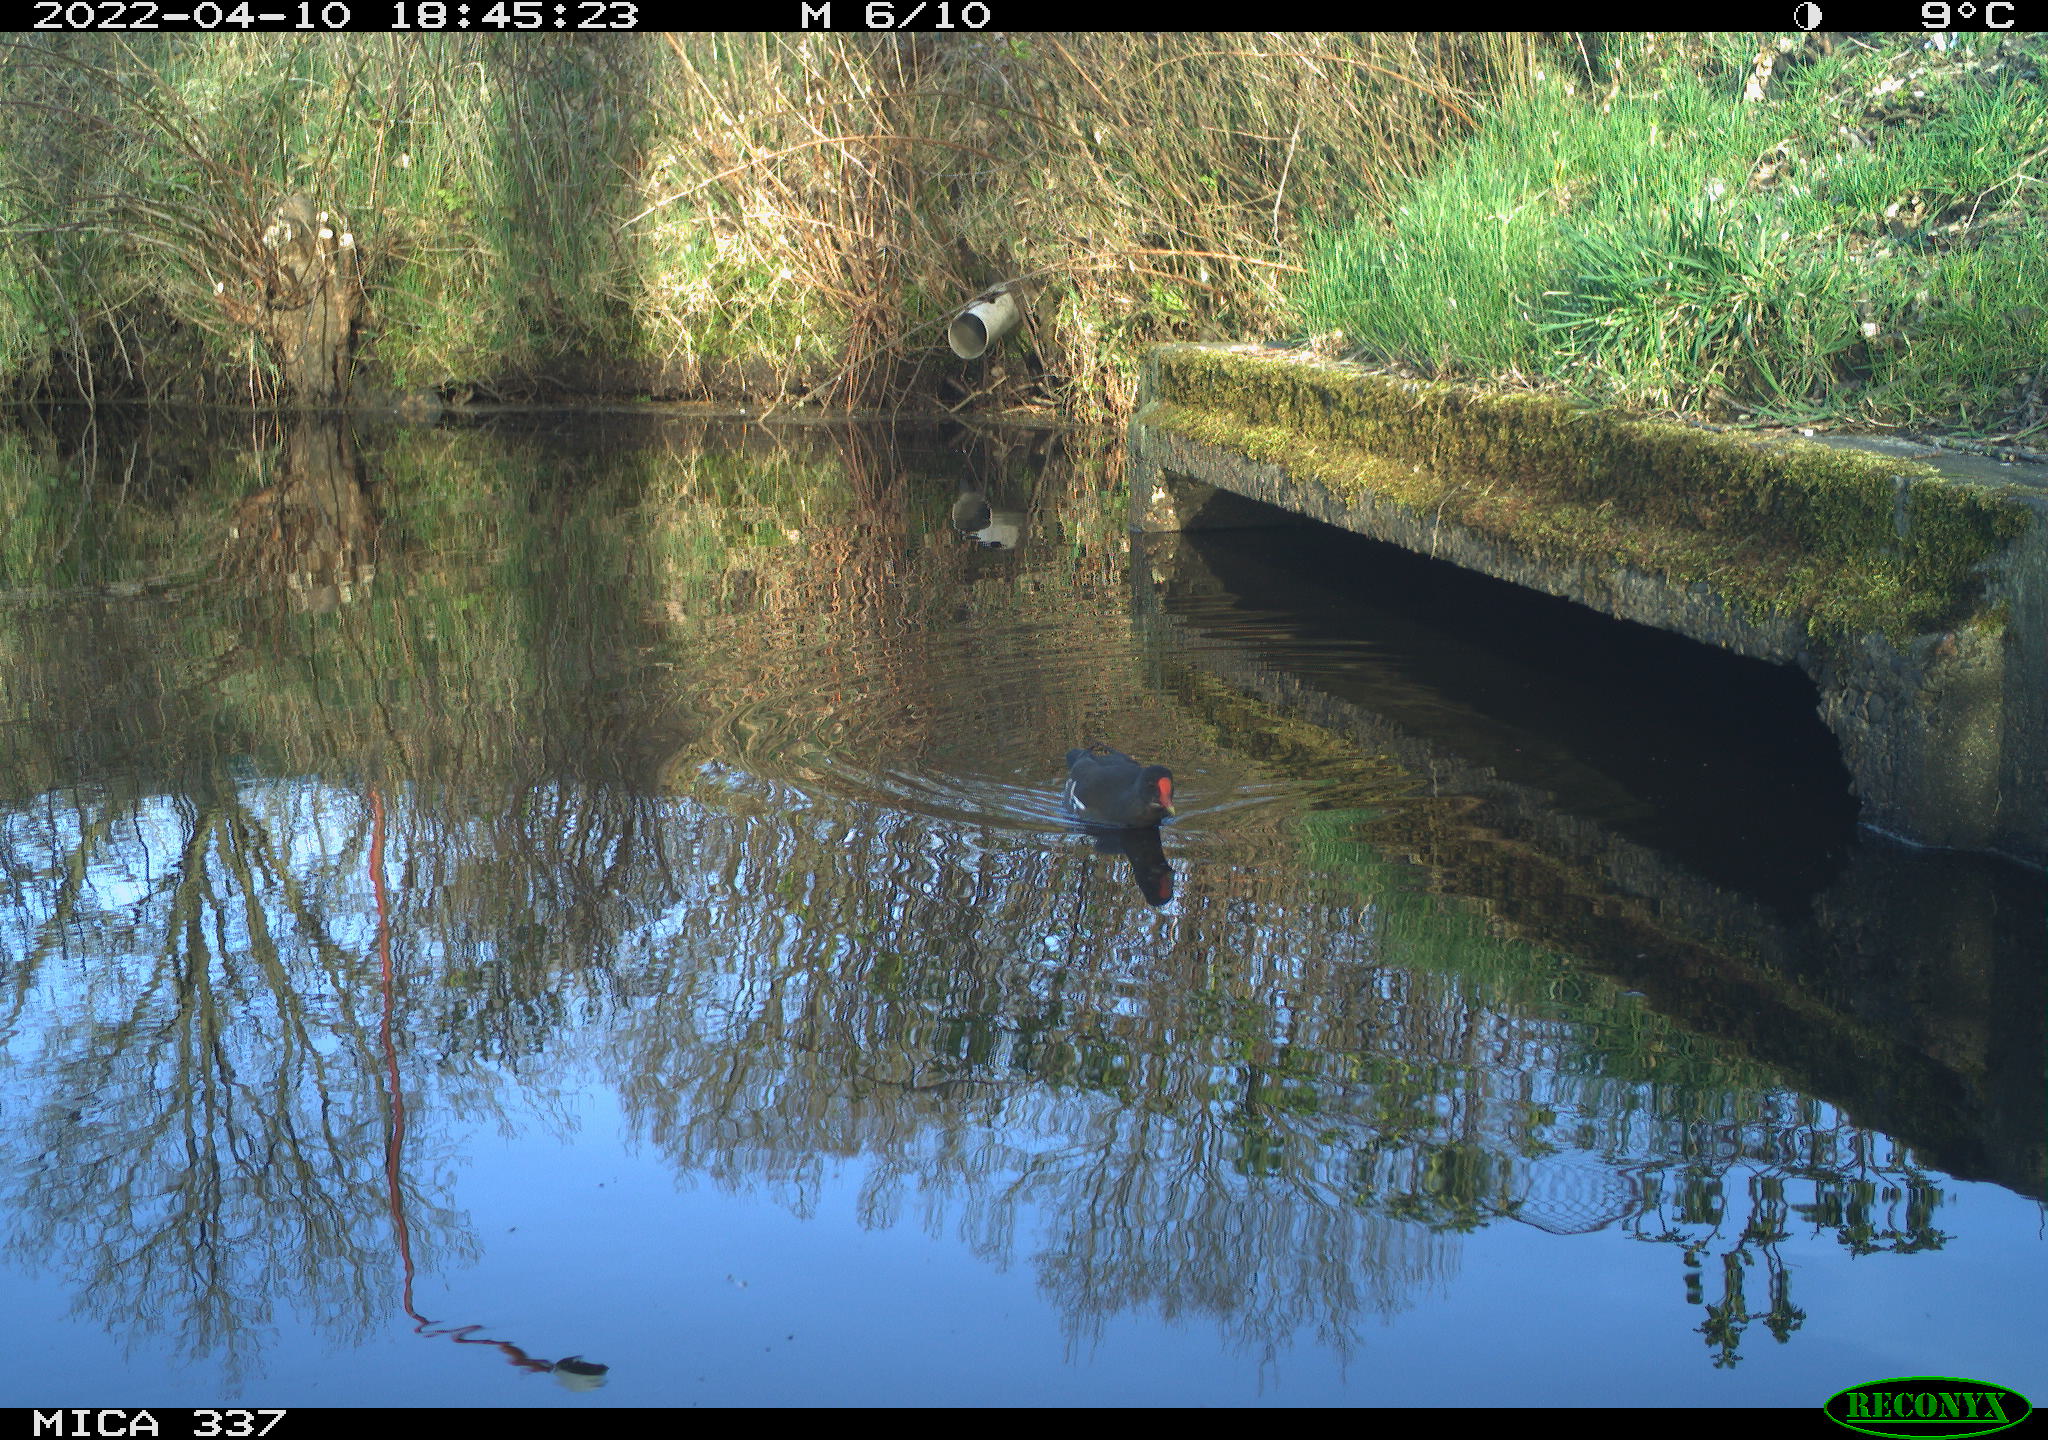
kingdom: Animalia
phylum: Chordata
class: Aves
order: Gruiformes
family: Rallidae
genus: Gallinula
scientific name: Gallinula chloropus
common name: Common moorhen
